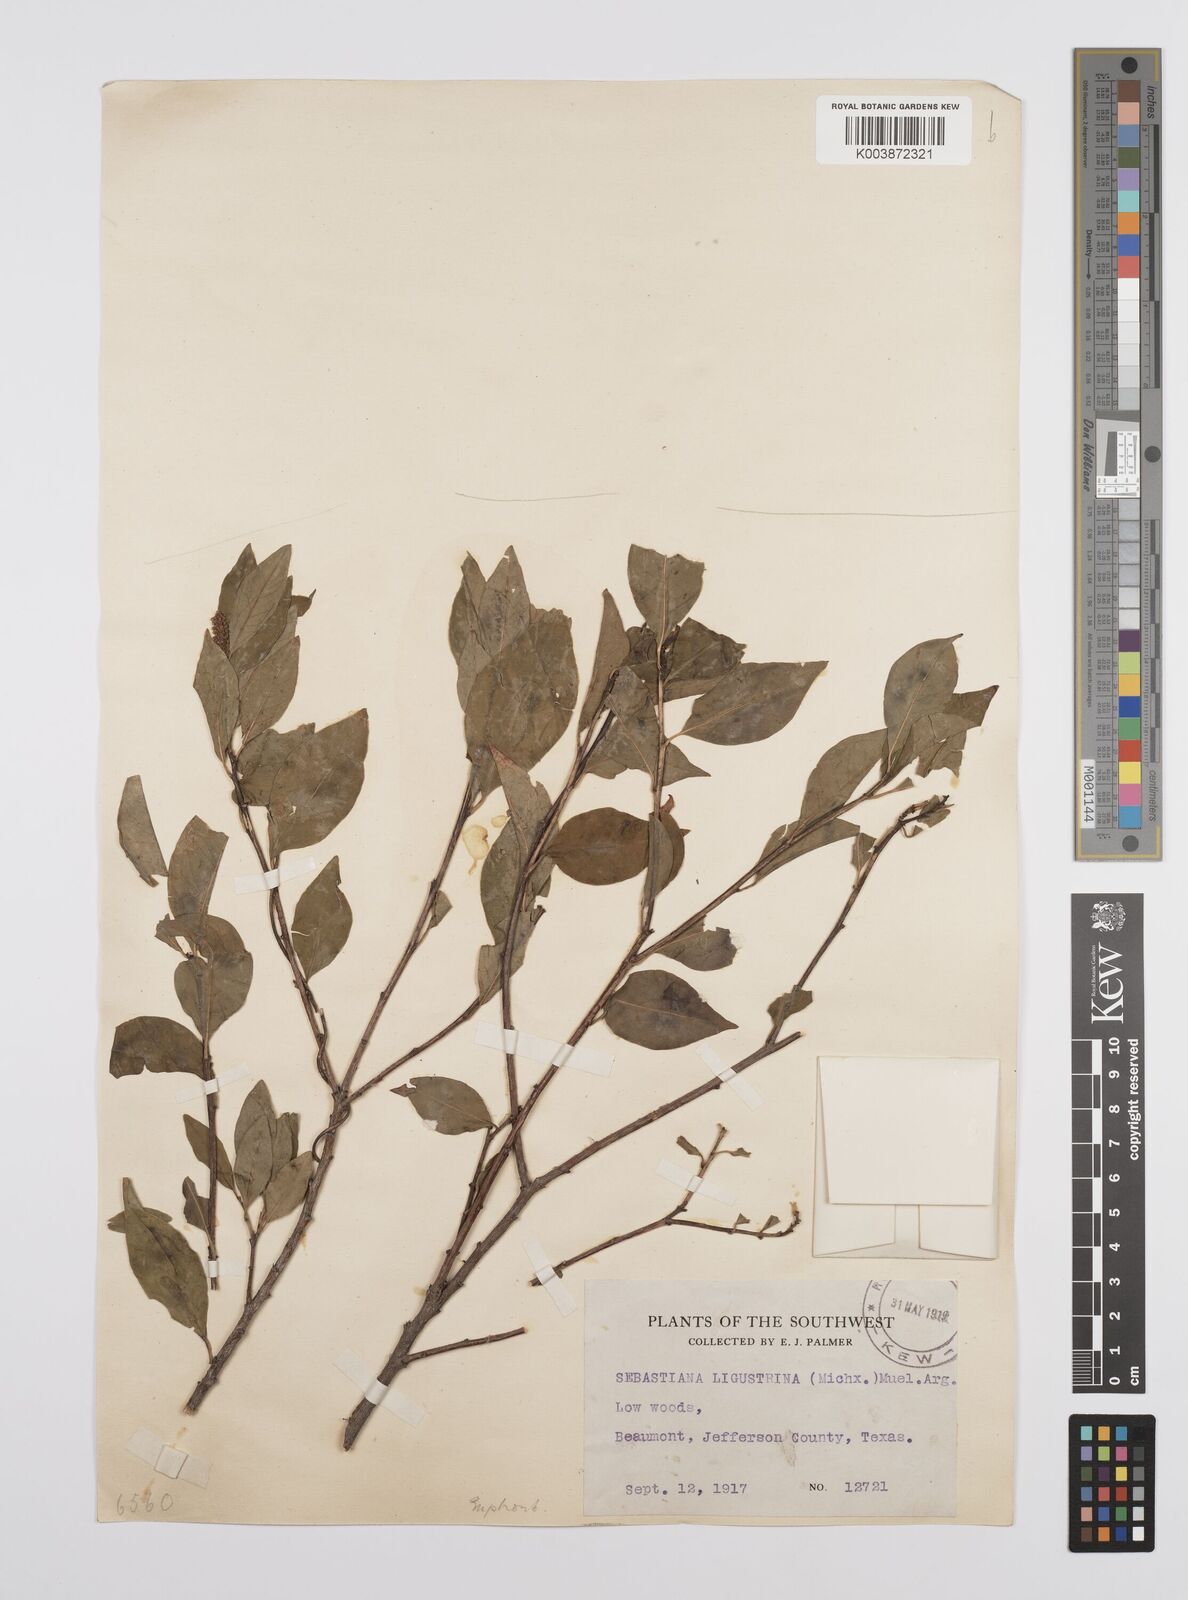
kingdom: Plantae
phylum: Tracheophyta
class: Magnoliopsida
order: Malpighiales
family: Euphorbiaceae
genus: Ditrysinia
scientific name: Ditrysinia fruticosa
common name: Gulf sebastian-bush
